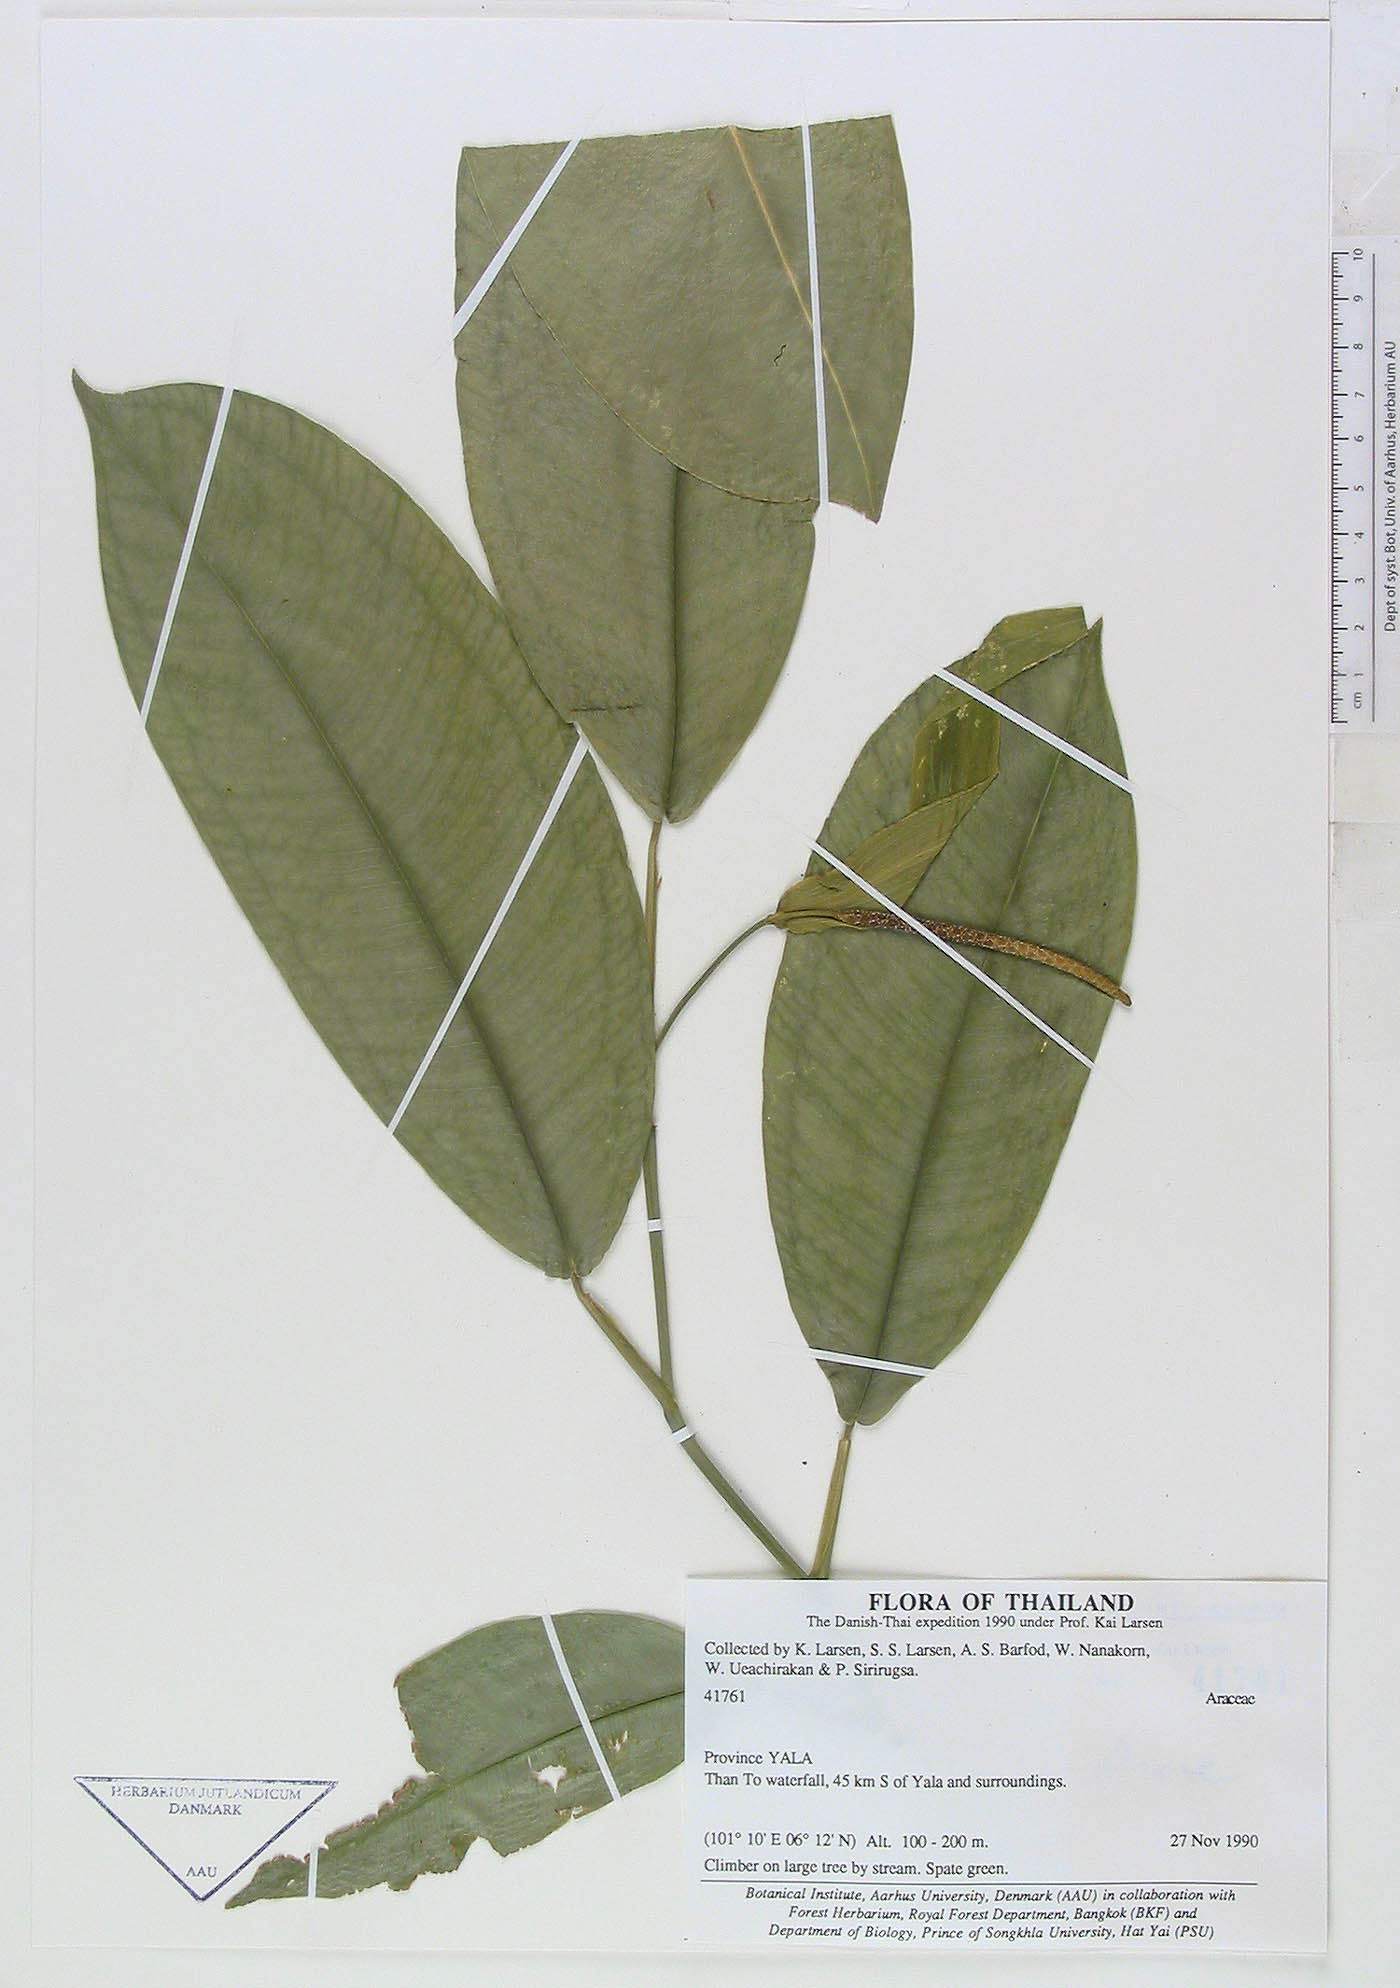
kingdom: Plantae
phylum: Tracheophyta
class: Liliopsida
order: Alismatales
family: Araceae
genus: Pothos
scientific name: Pothos leptostachyus
